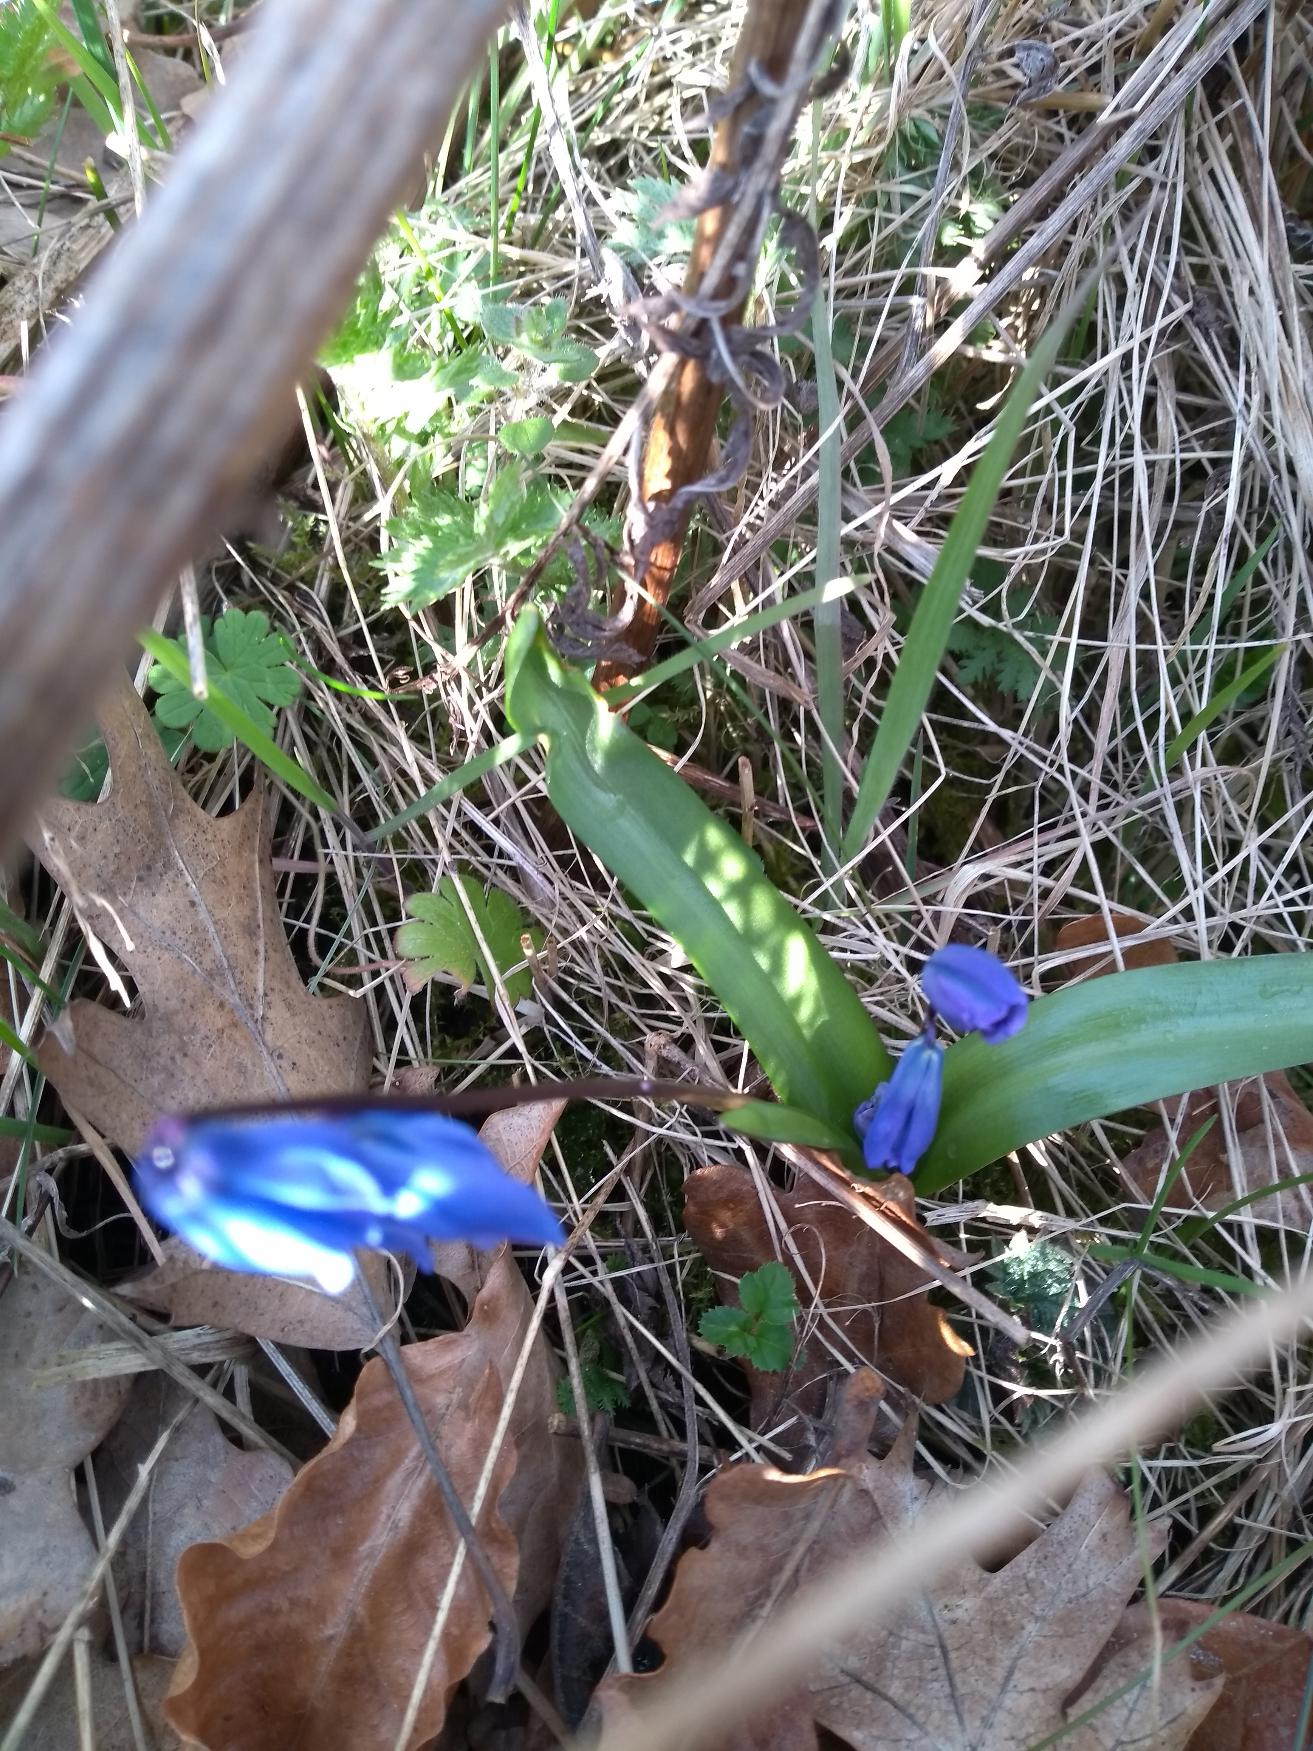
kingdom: Plantae
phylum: Tracheophyta
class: Liliopsida
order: Asparagales
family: Asparagaceae
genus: Scilla
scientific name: Scilla siberica
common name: Russisk skilla
